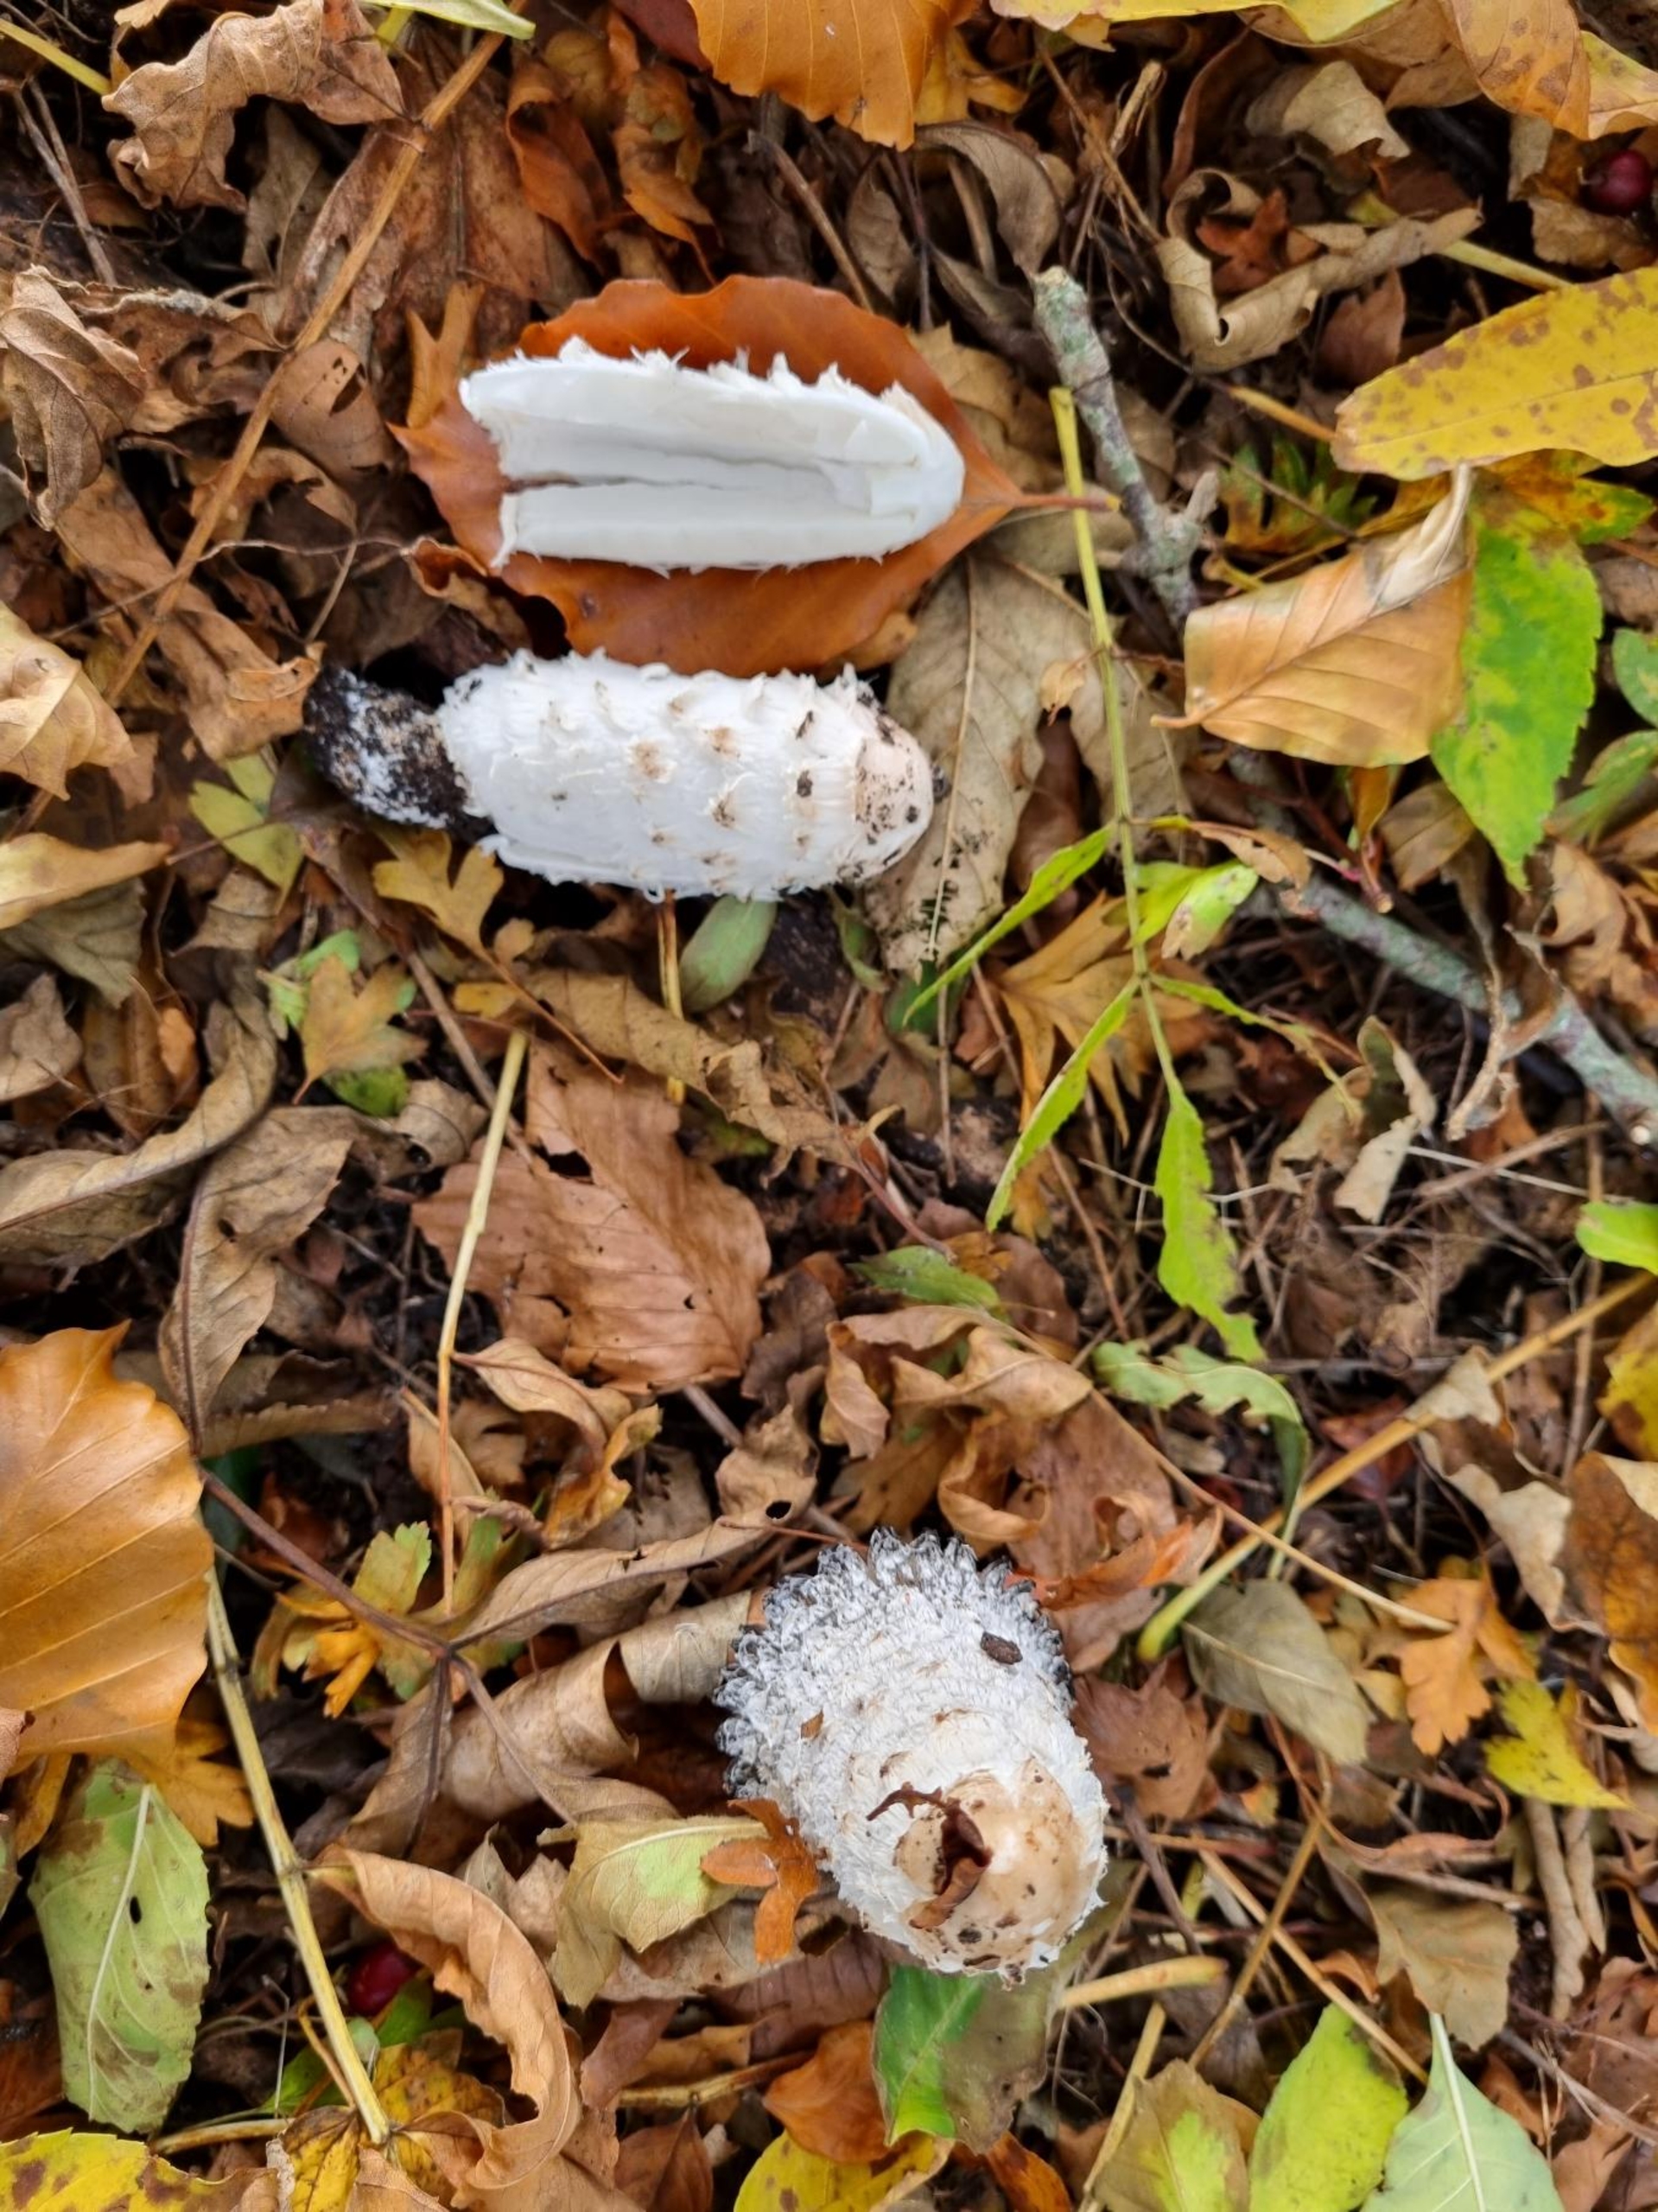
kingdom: Fungi
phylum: Basidiomycota
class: Agaricomycetes
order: Agaricales
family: Agaricaceae
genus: Coprinus
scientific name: Coprinus comatus
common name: Stor parykhat
